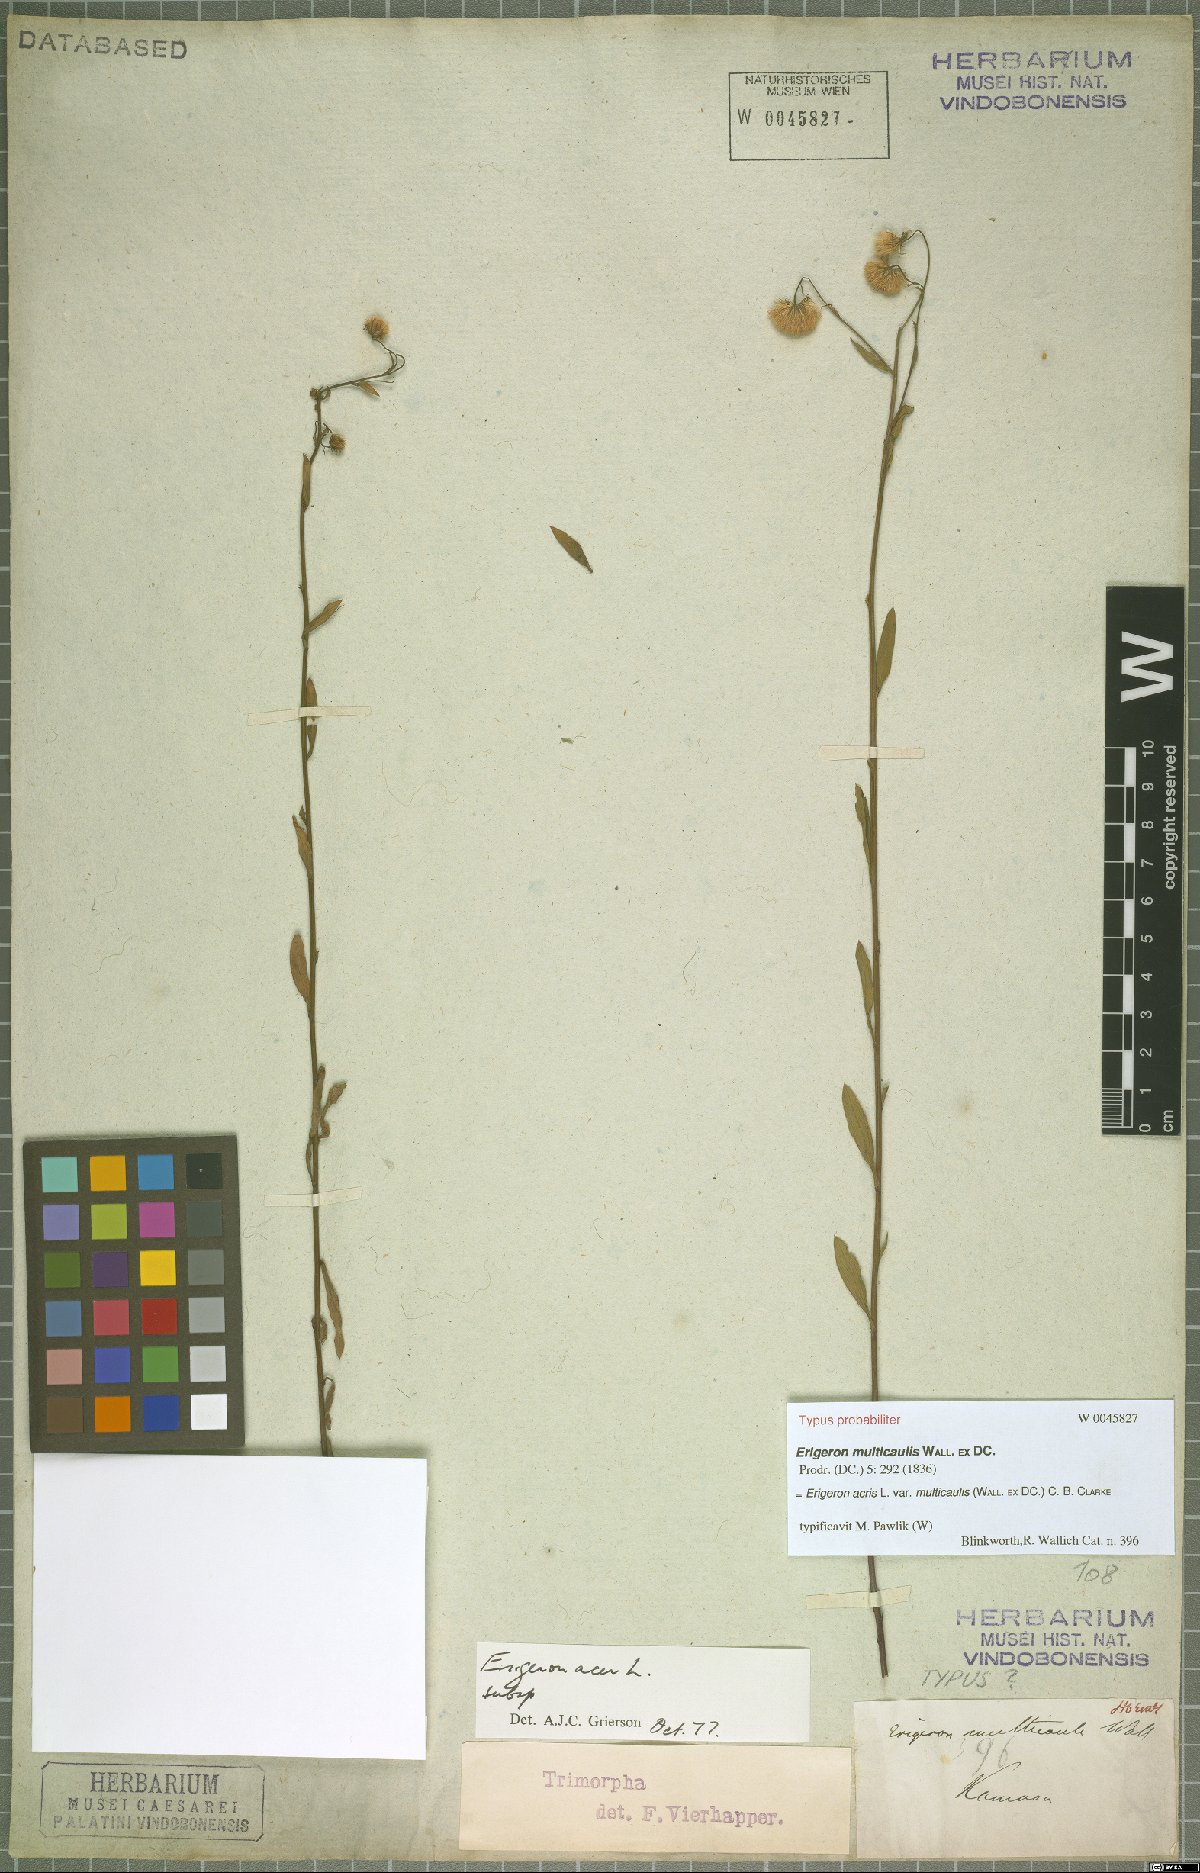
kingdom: Plantae
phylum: Tracheophyta
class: Magnoliopsida
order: Asterales
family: Asteraceae
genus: Erigeron
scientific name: Erigeron acris
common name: Blue fleabane
